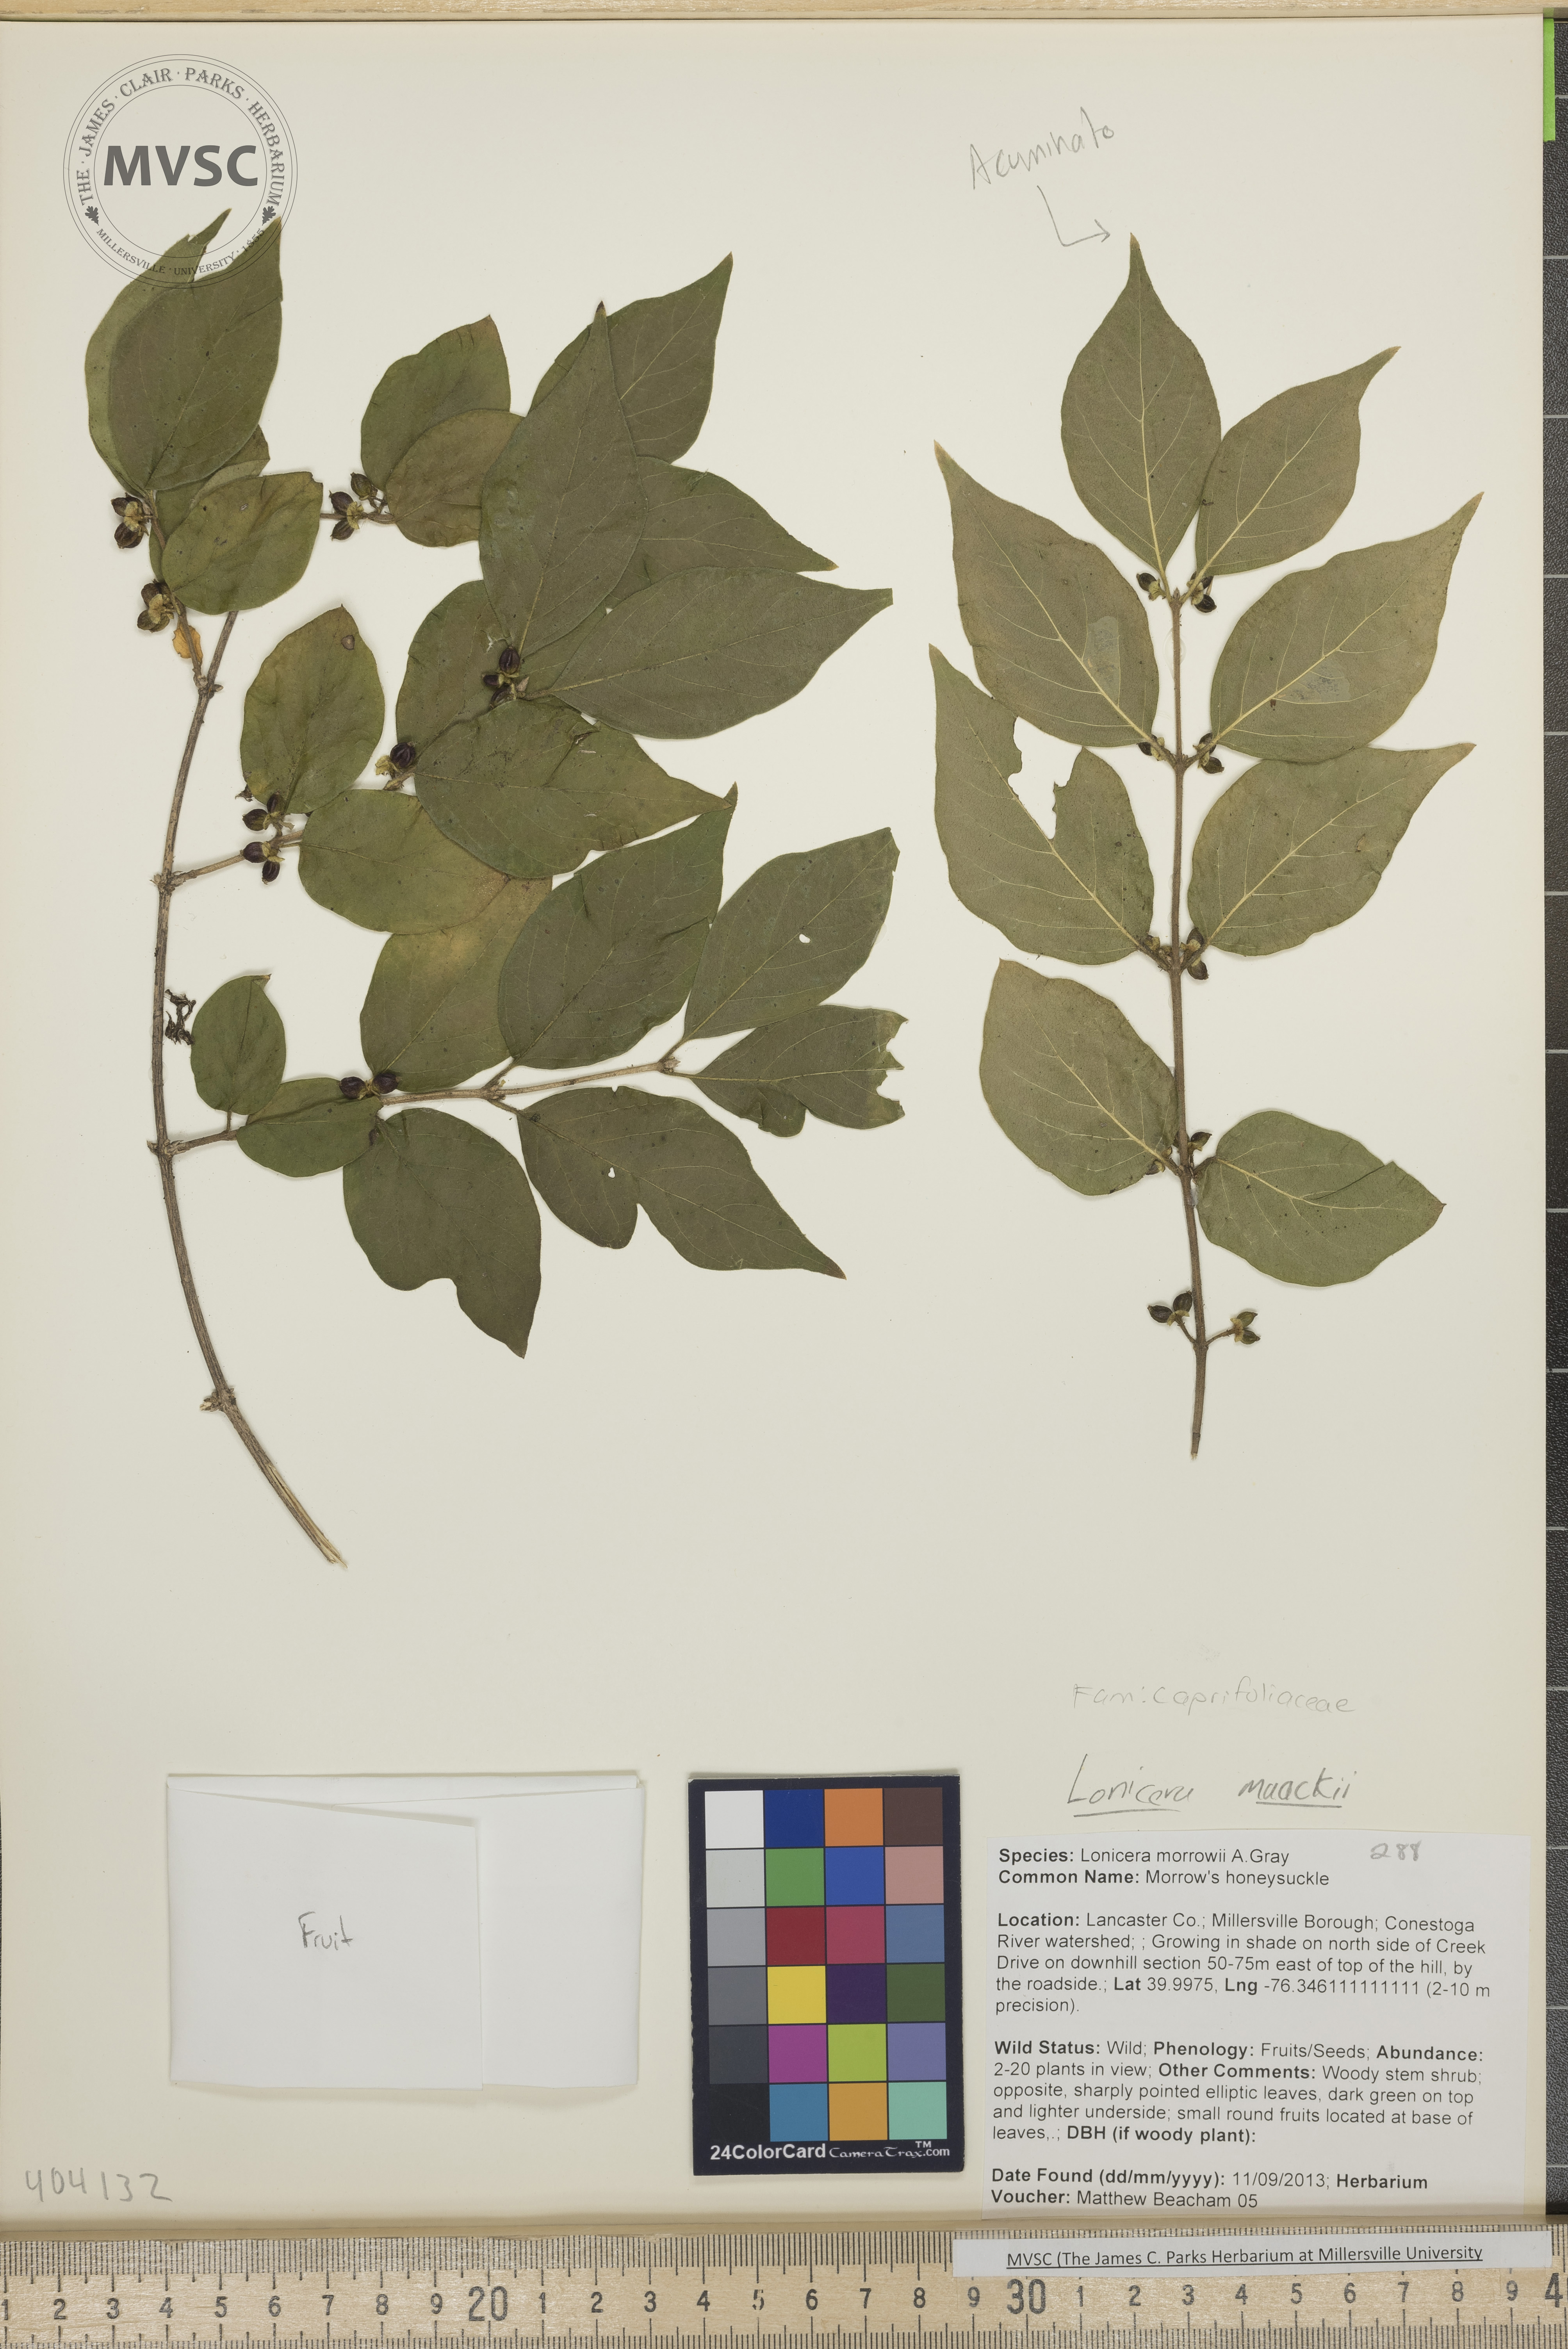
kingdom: Plantae
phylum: Tracheophyta
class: Magnoliopsida
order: Dipsacales
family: Caprifoliaceae
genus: Lonicera
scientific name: Lonicera maackii
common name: Morrow's honeysuckle
